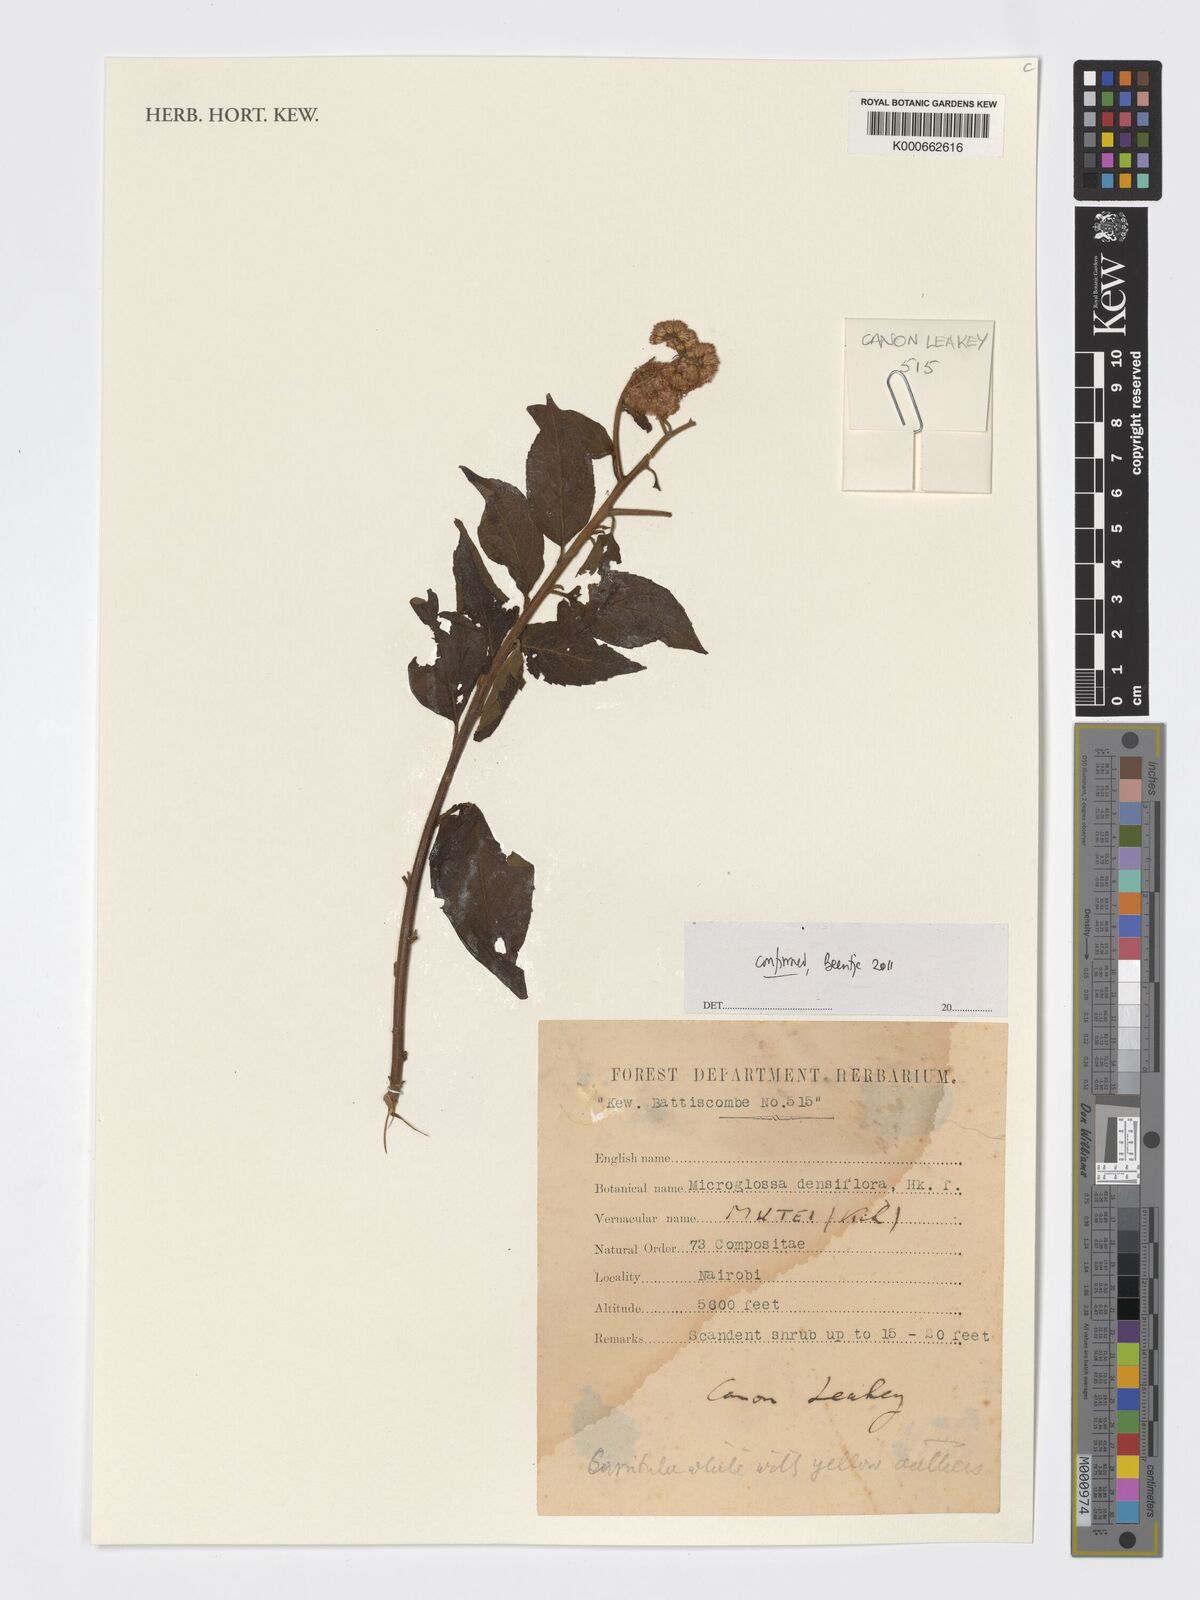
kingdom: Plantae
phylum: Tracheophyta
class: Magnoliopsida
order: Asterales
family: Asteraceae
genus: Microglossa
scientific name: Microglossa densiflora
